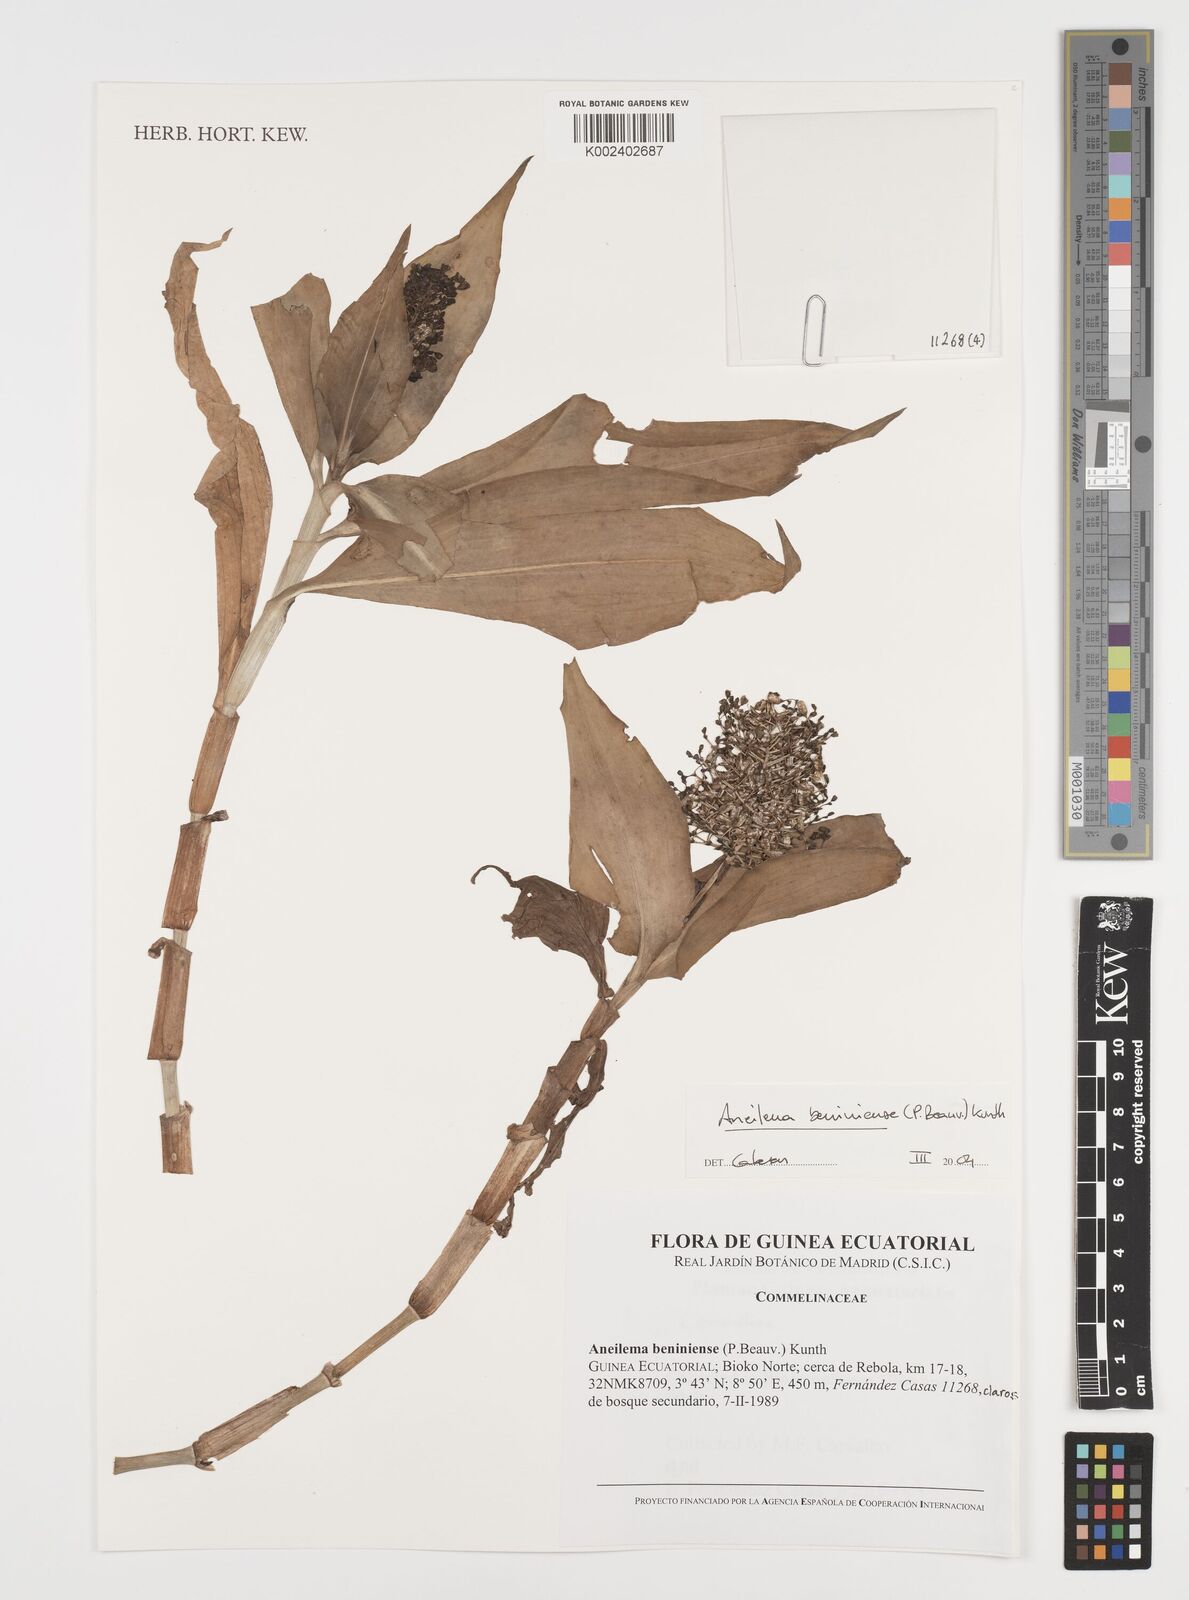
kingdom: Plantae
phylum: Tracheophyta
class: Liliopsida
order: Commelinales
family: Commelinaceae
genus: Aneilema
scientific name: Aneilema beniniense
